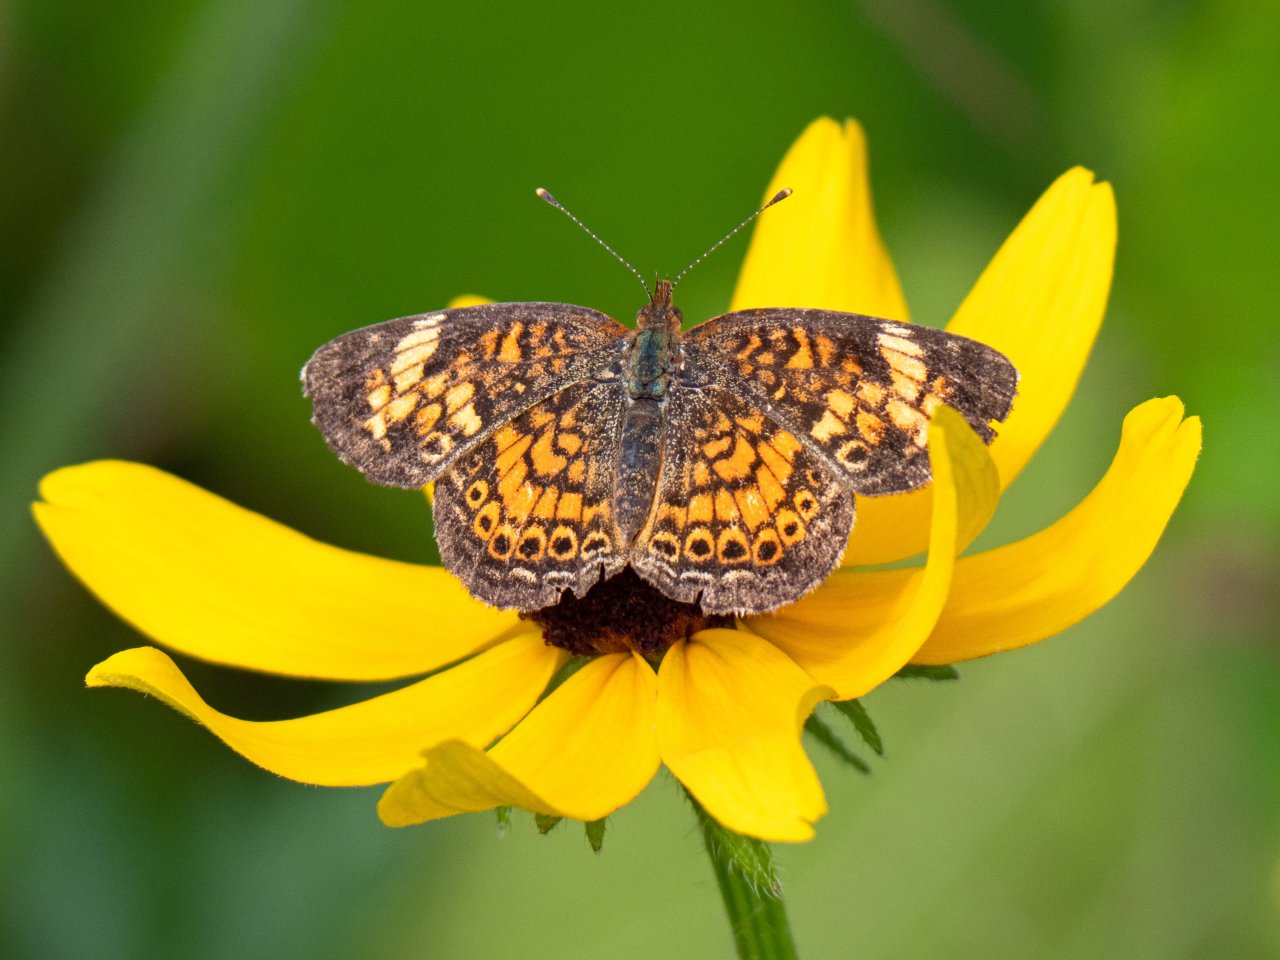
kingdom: Animalia
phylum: Arthropoda
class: Insecta
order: Lepidoptera
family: Nymphalidae
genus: Phyciodes
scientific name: Phyciodes tharos
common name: Pearl Crescent
